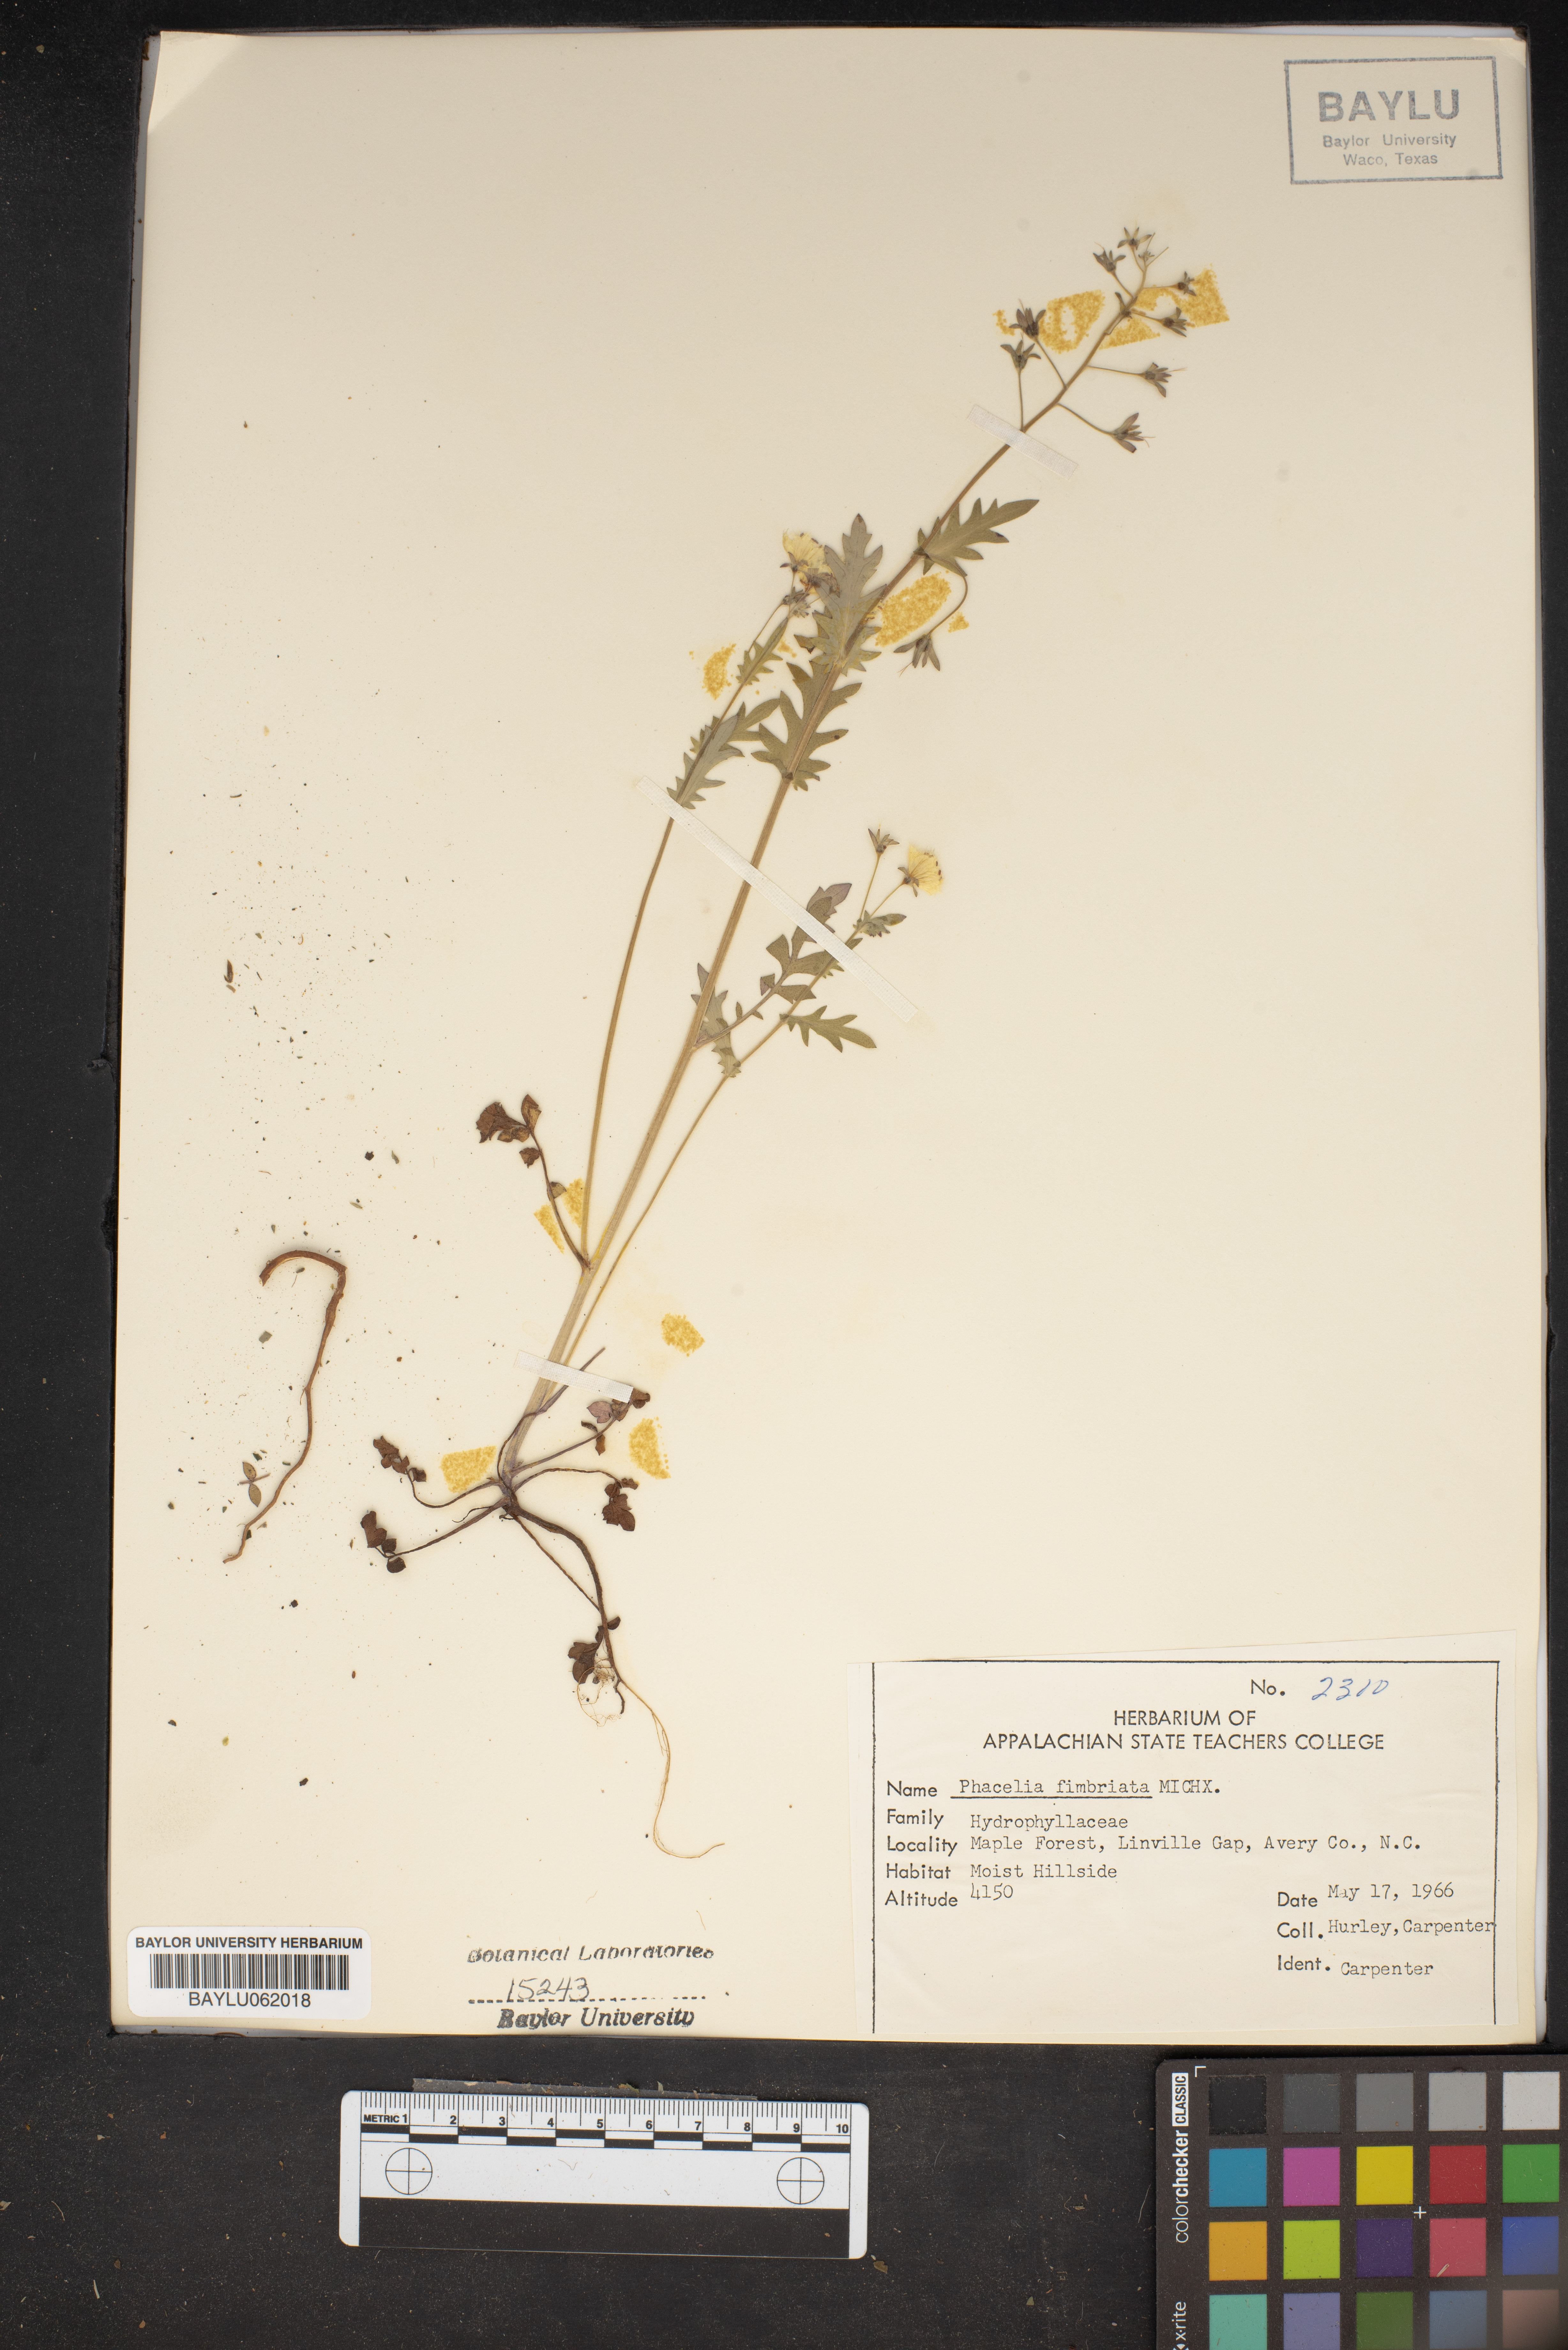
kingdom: Plantae
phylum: Tracheophyta
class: Magnoliopsida
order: Boraginales
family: Hydrophyllaceae
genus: Phacelia
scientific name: Phacelia fimbriata
